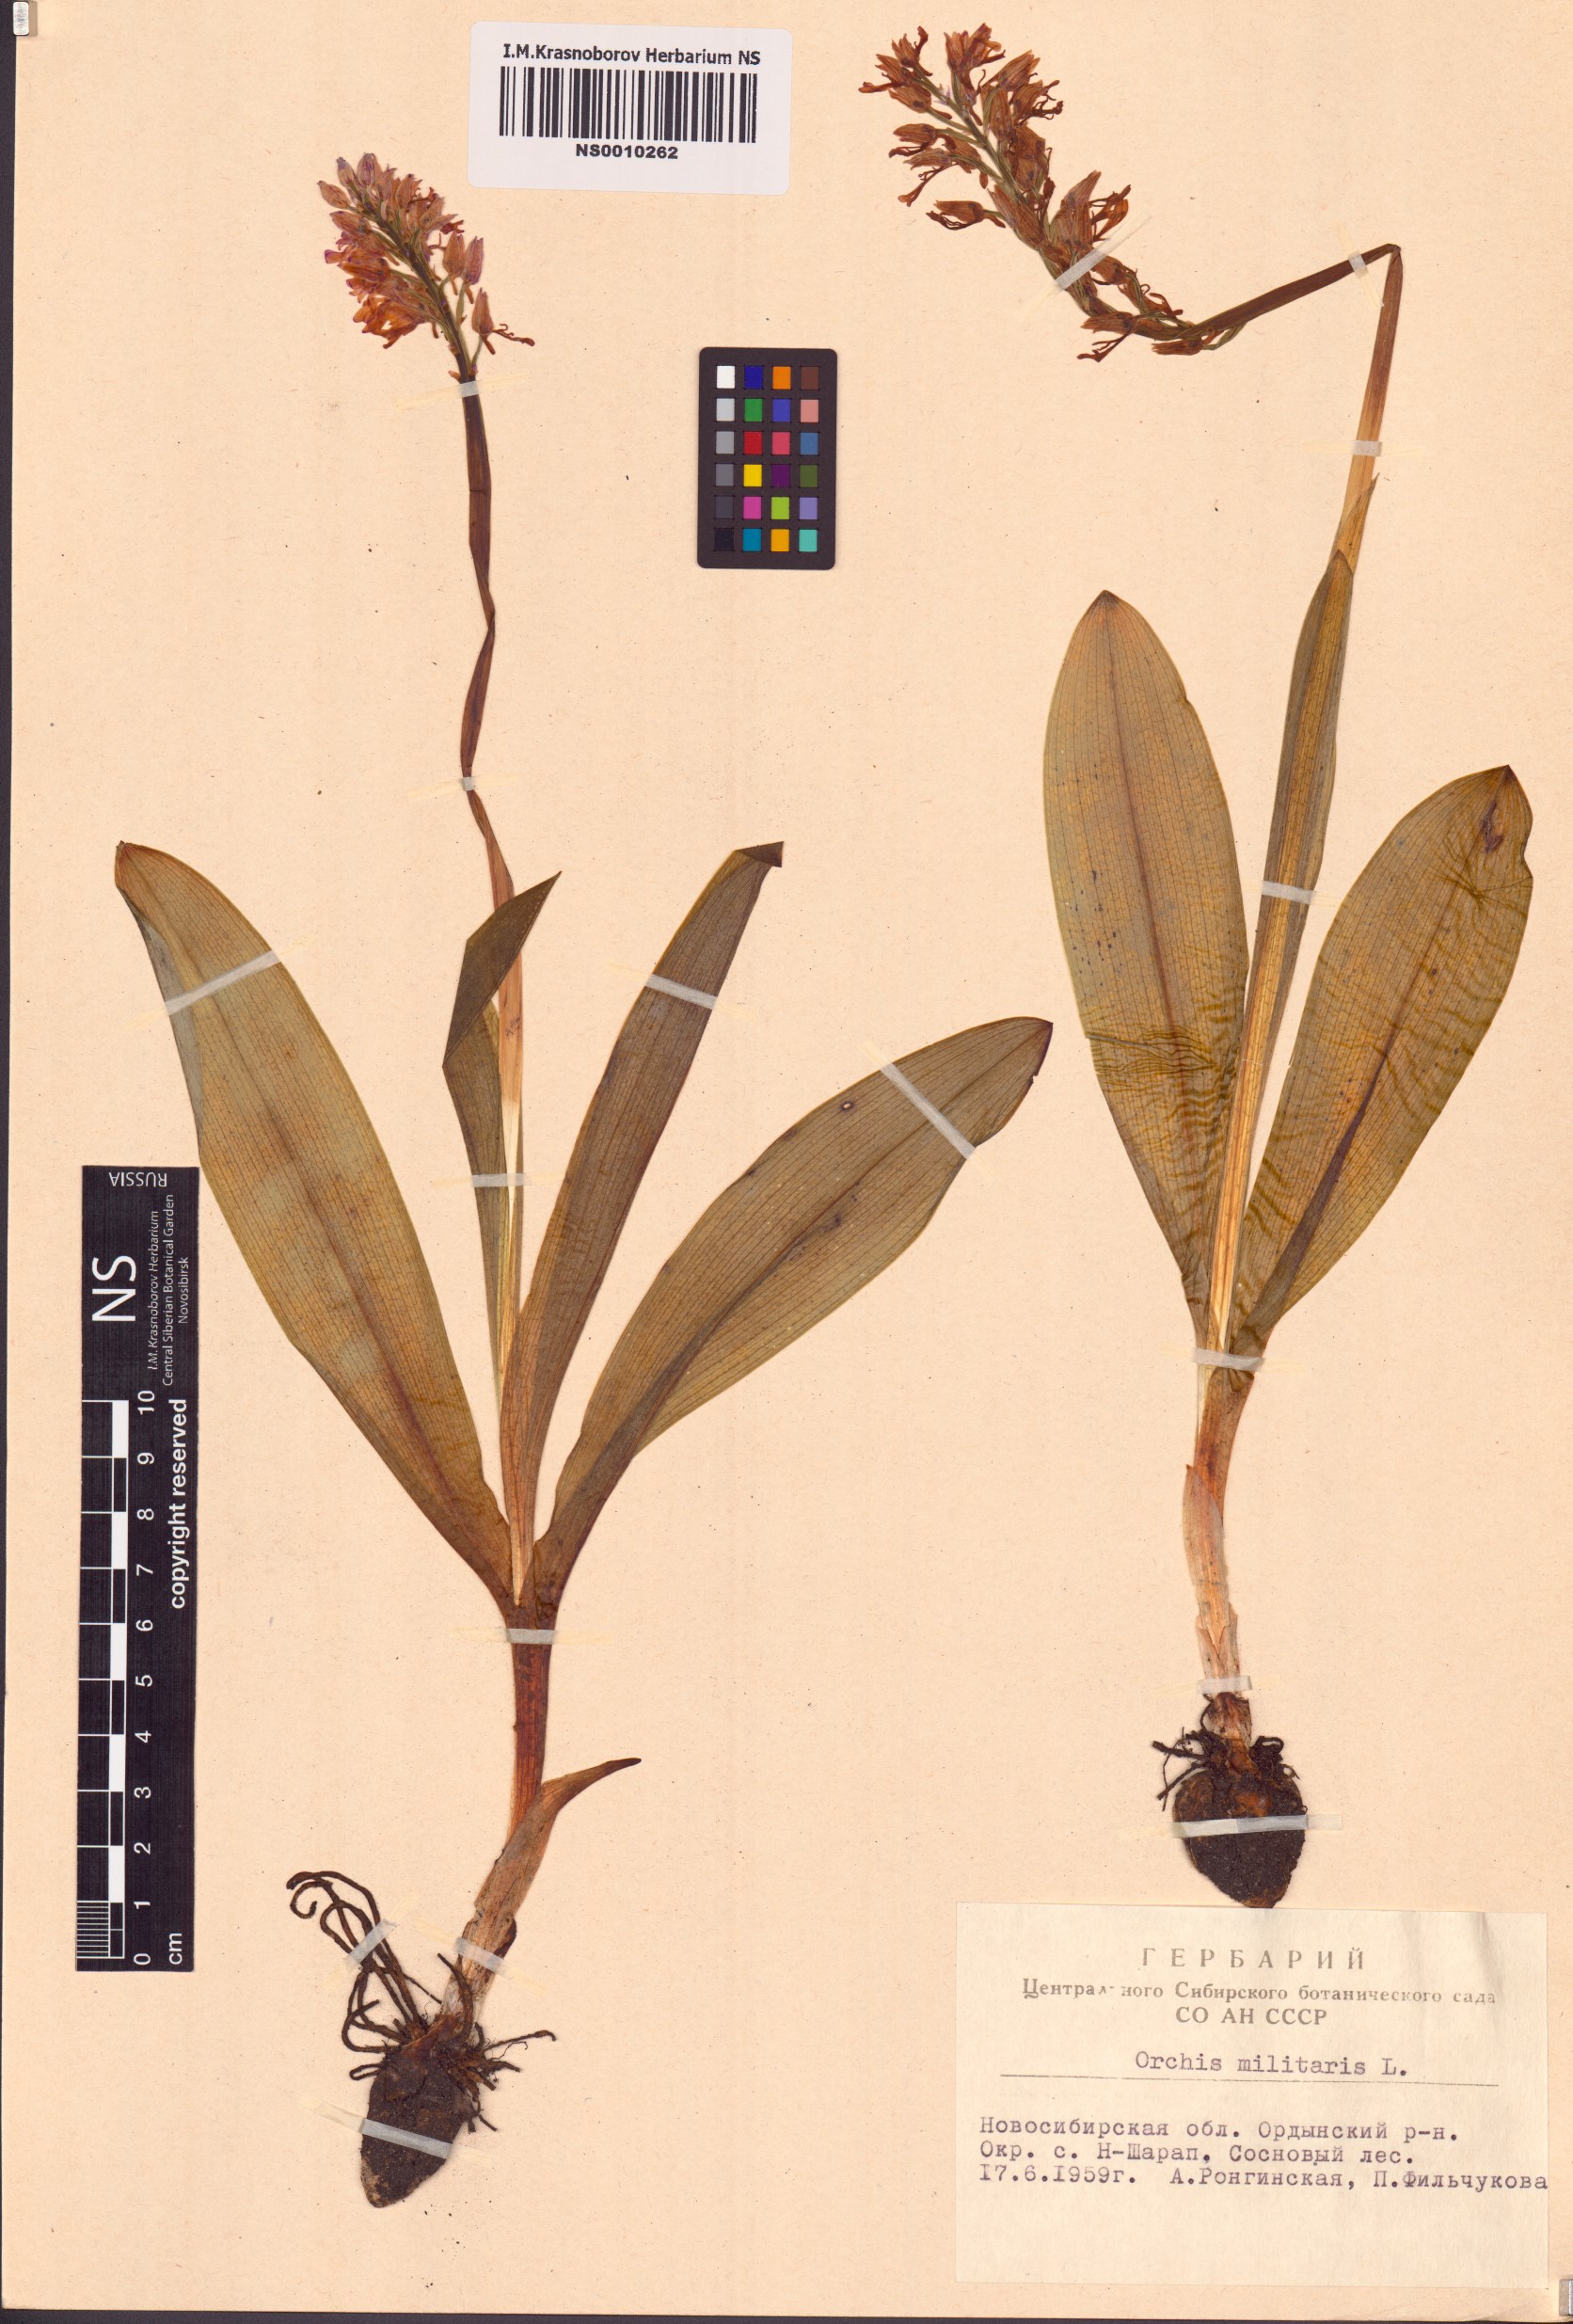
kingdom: Plantae
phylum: Tracheophyta
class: Liliopsida
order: Asparagales
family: Orchidaceae
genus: Orchis
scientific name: Orchis militaris
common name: Military orchid
